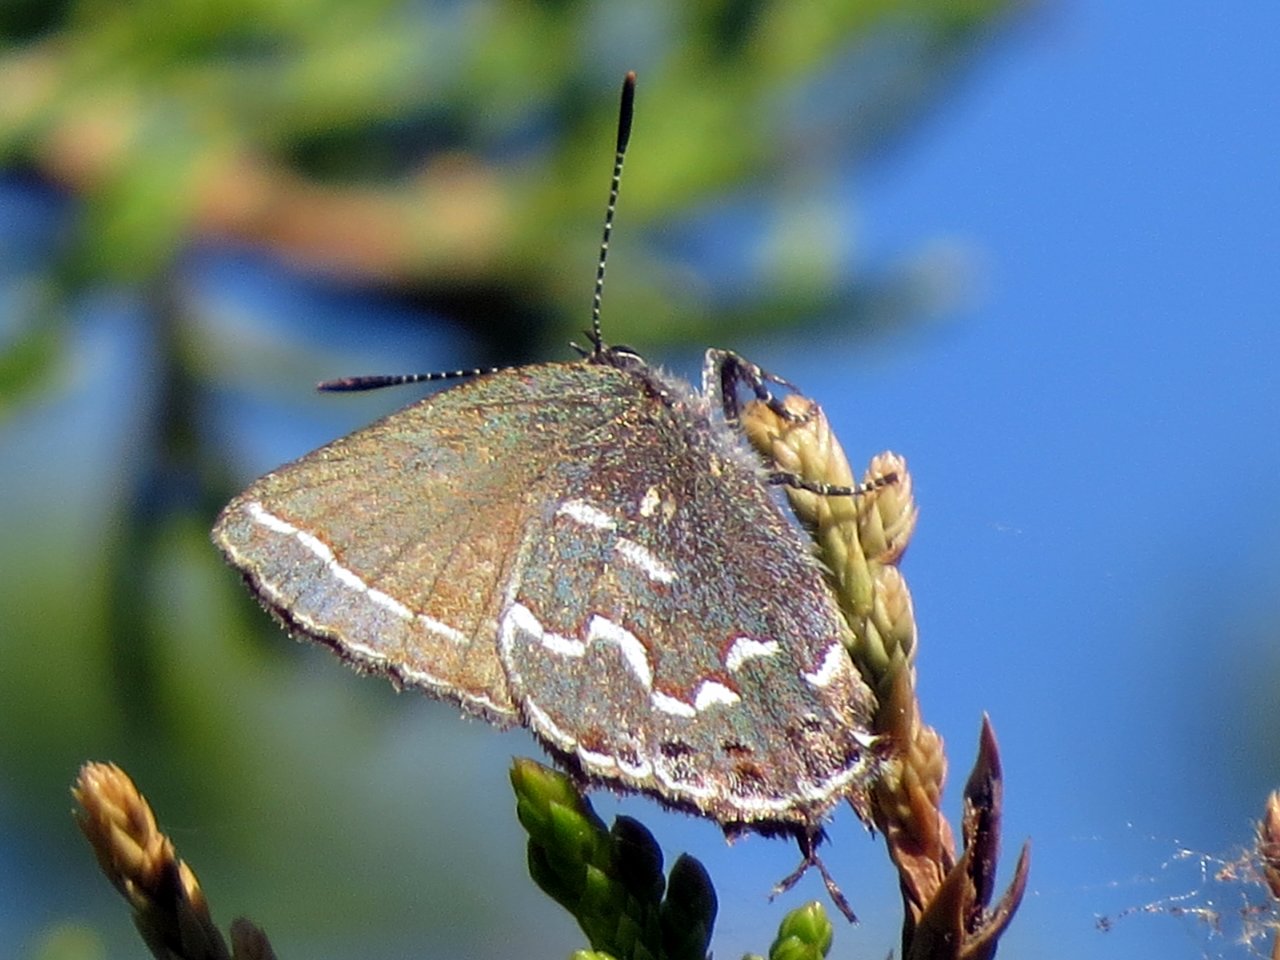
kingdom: Animalia
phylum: Arthropoda
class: Insecta
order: Lepidoptera
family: Lycaenidae
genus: Mitoura
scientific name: Mitoura gryneus
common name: Juniper Hairstreak
